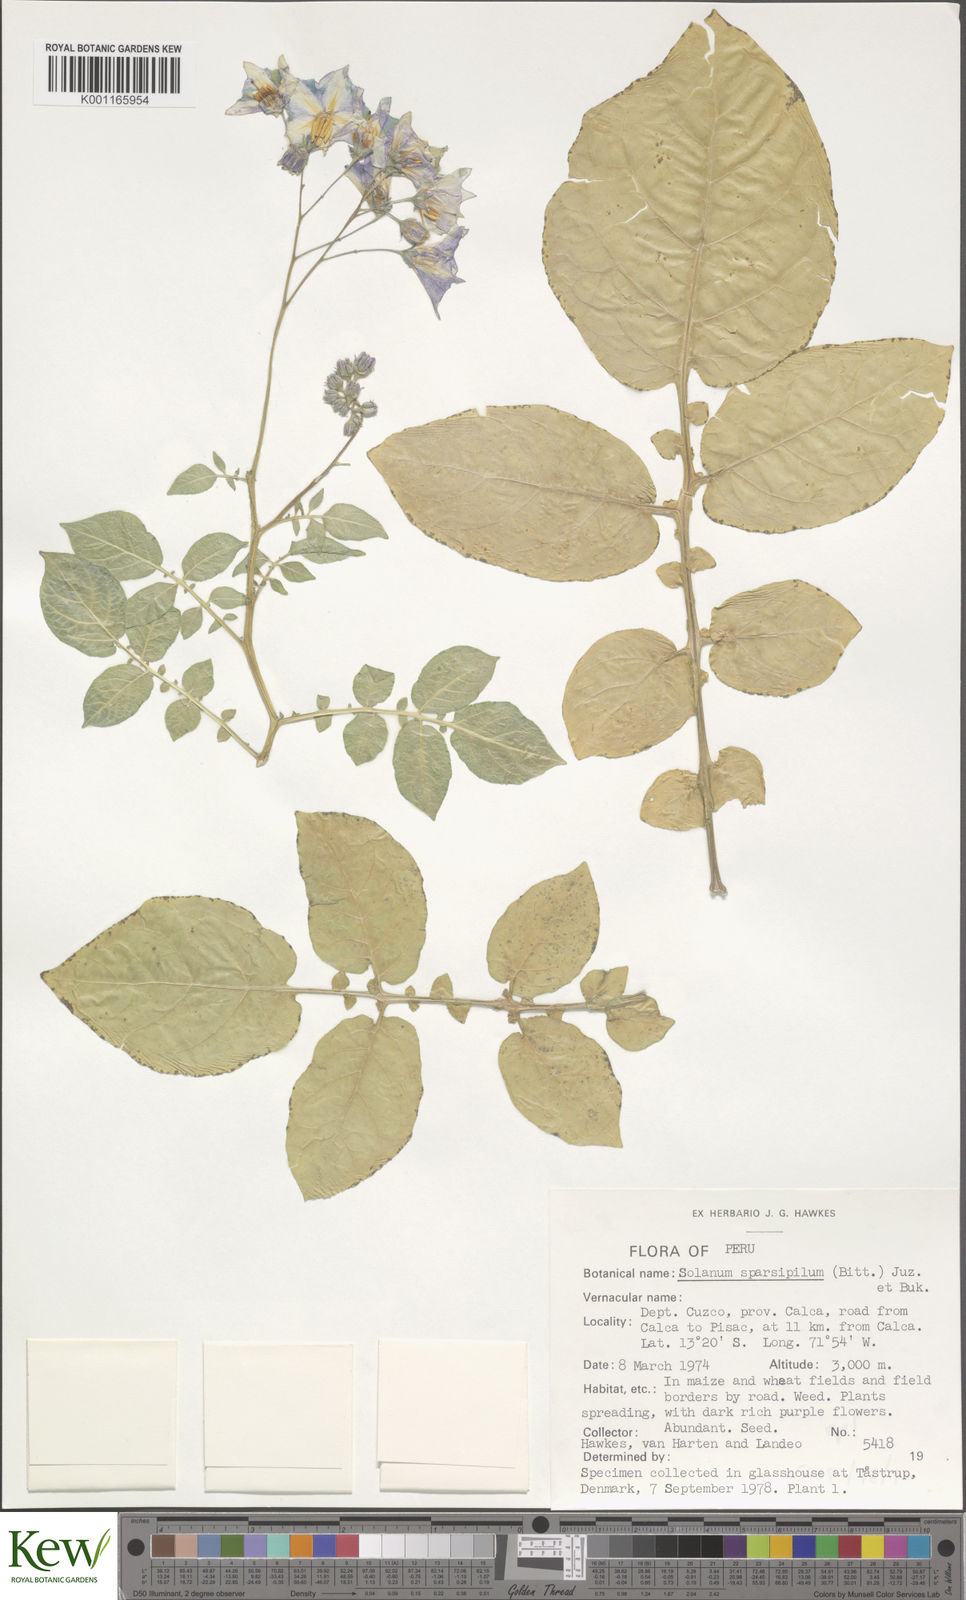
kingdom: Plantae
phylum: Tracheophyta
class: Magnoliopsida
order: Solanales
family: Solanaceae
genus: Solanum
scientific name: Solanum brevicaule
